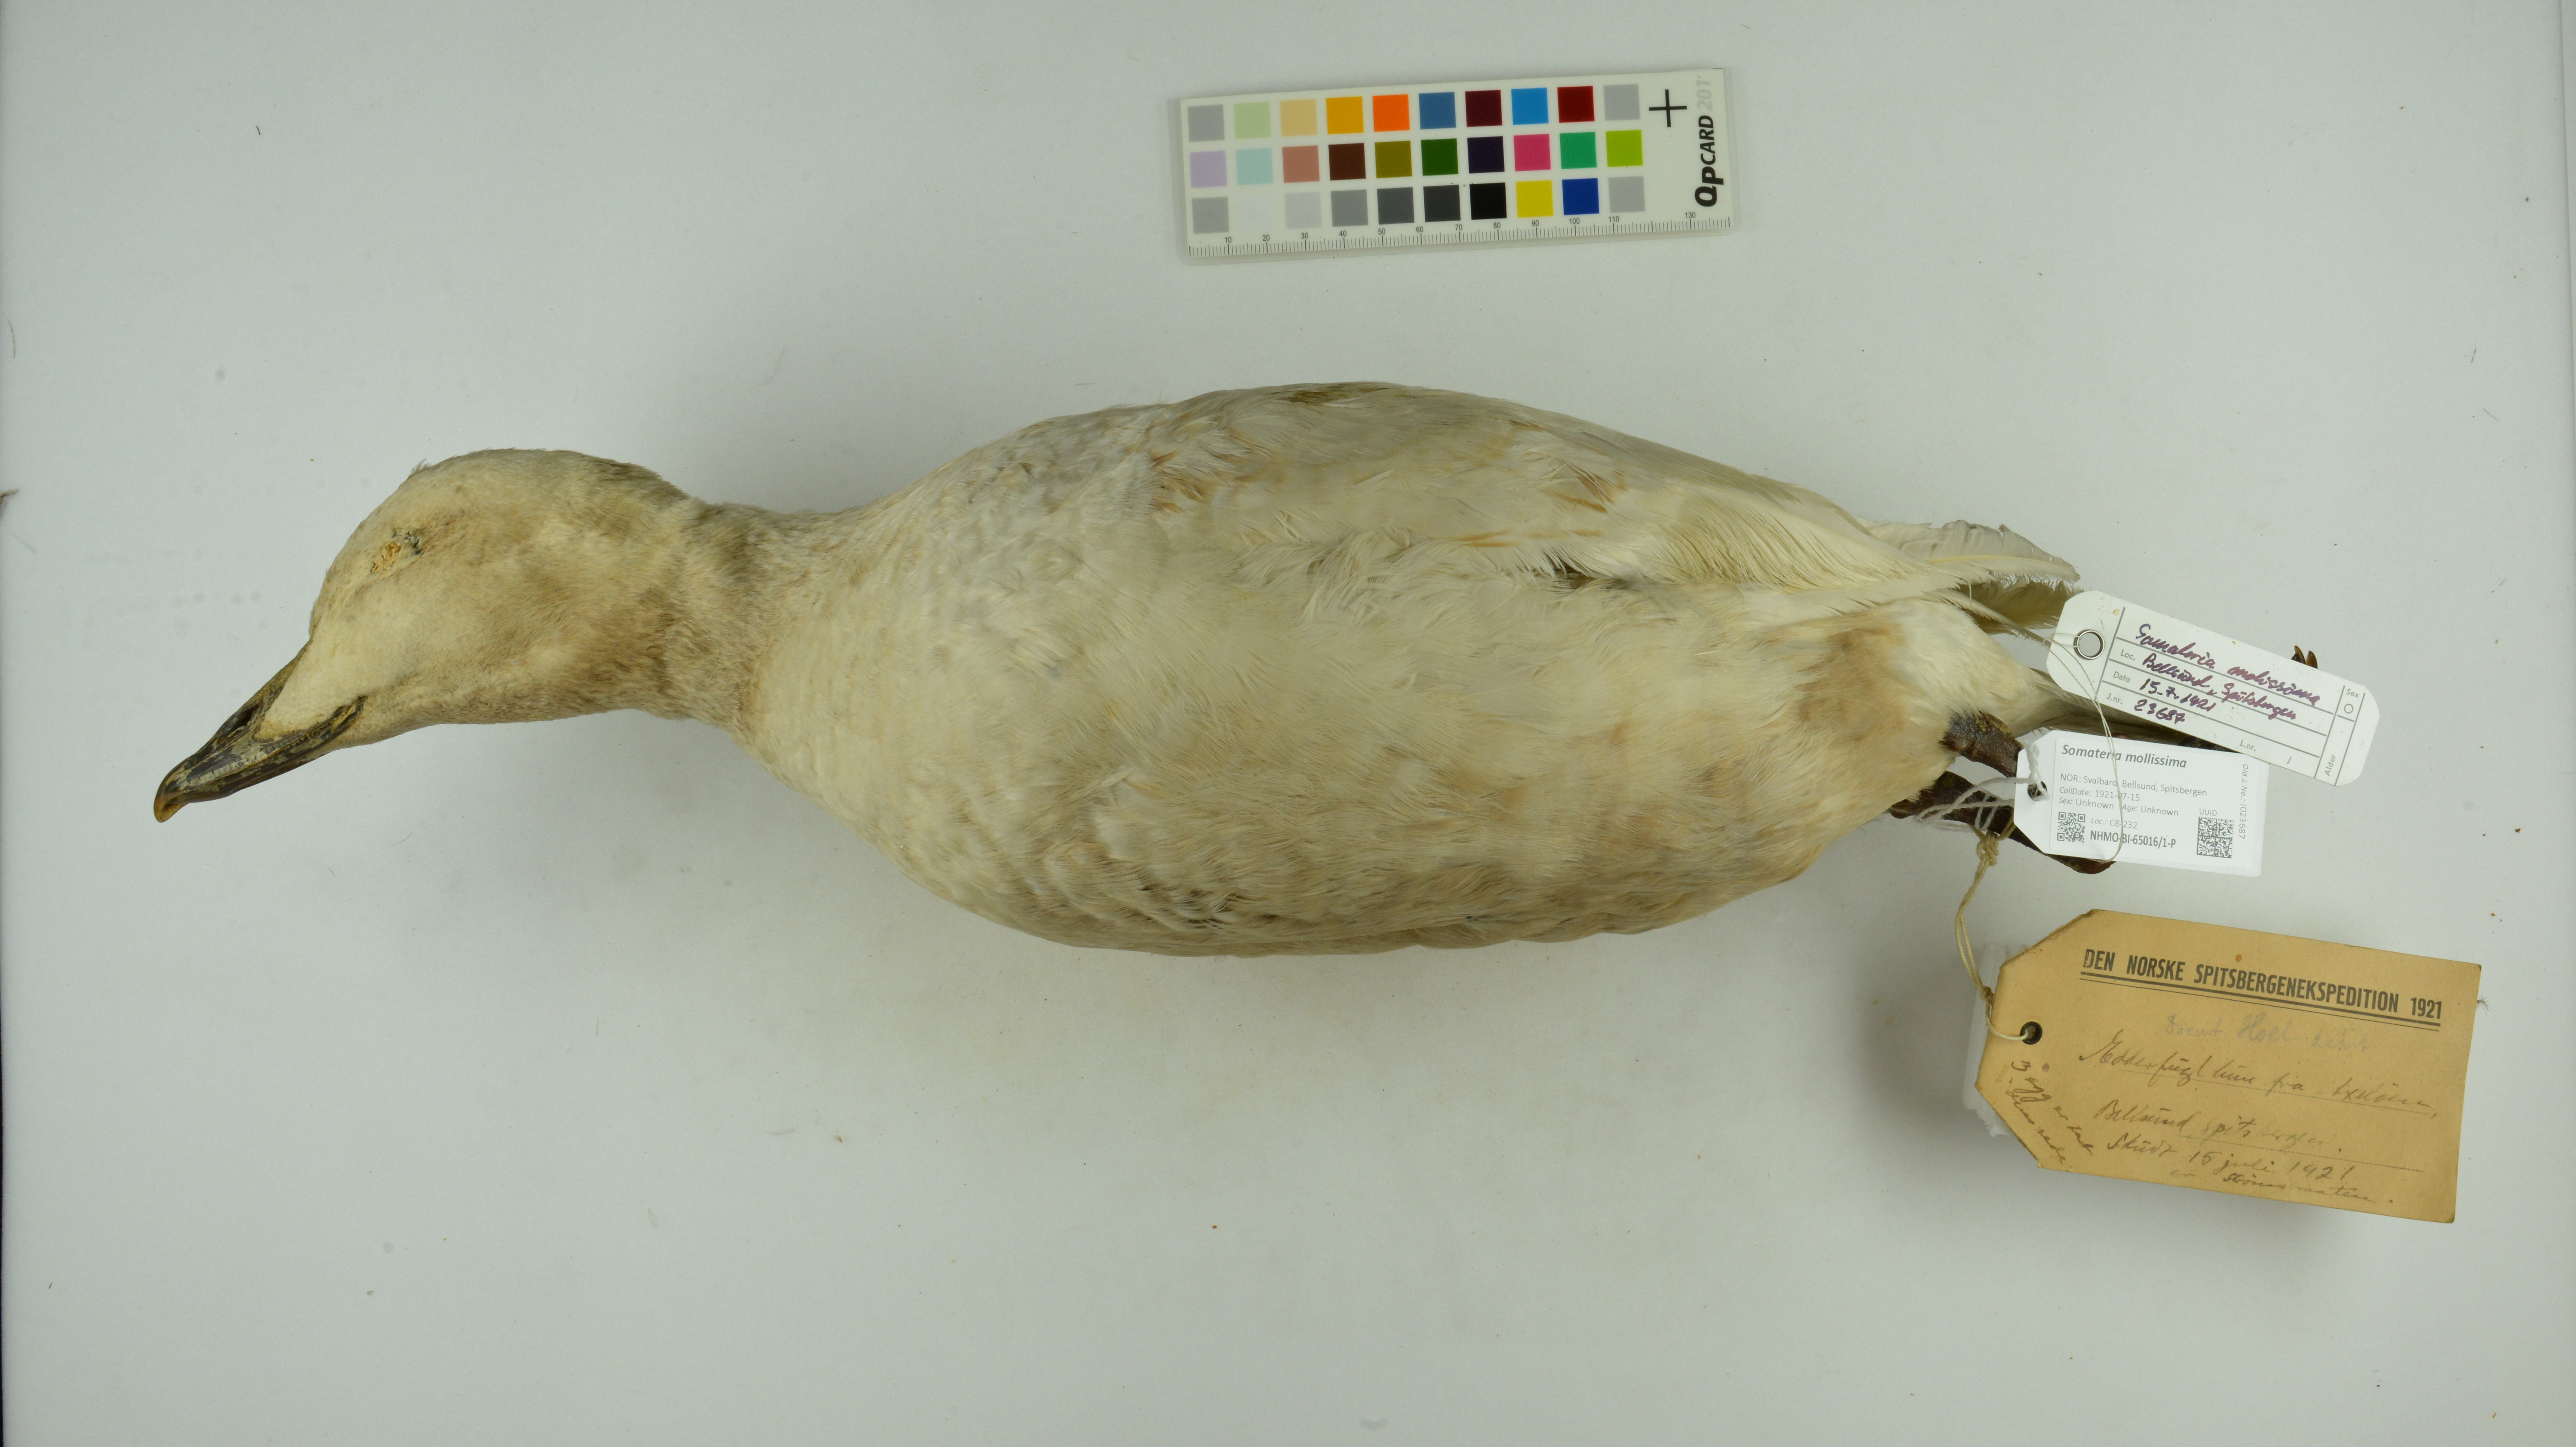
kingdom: Animalia
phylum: Chordata
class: Aves
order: Anseriformes
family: Anatidae
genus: Somateria
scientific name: Somateria mollissima
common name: Common eider
